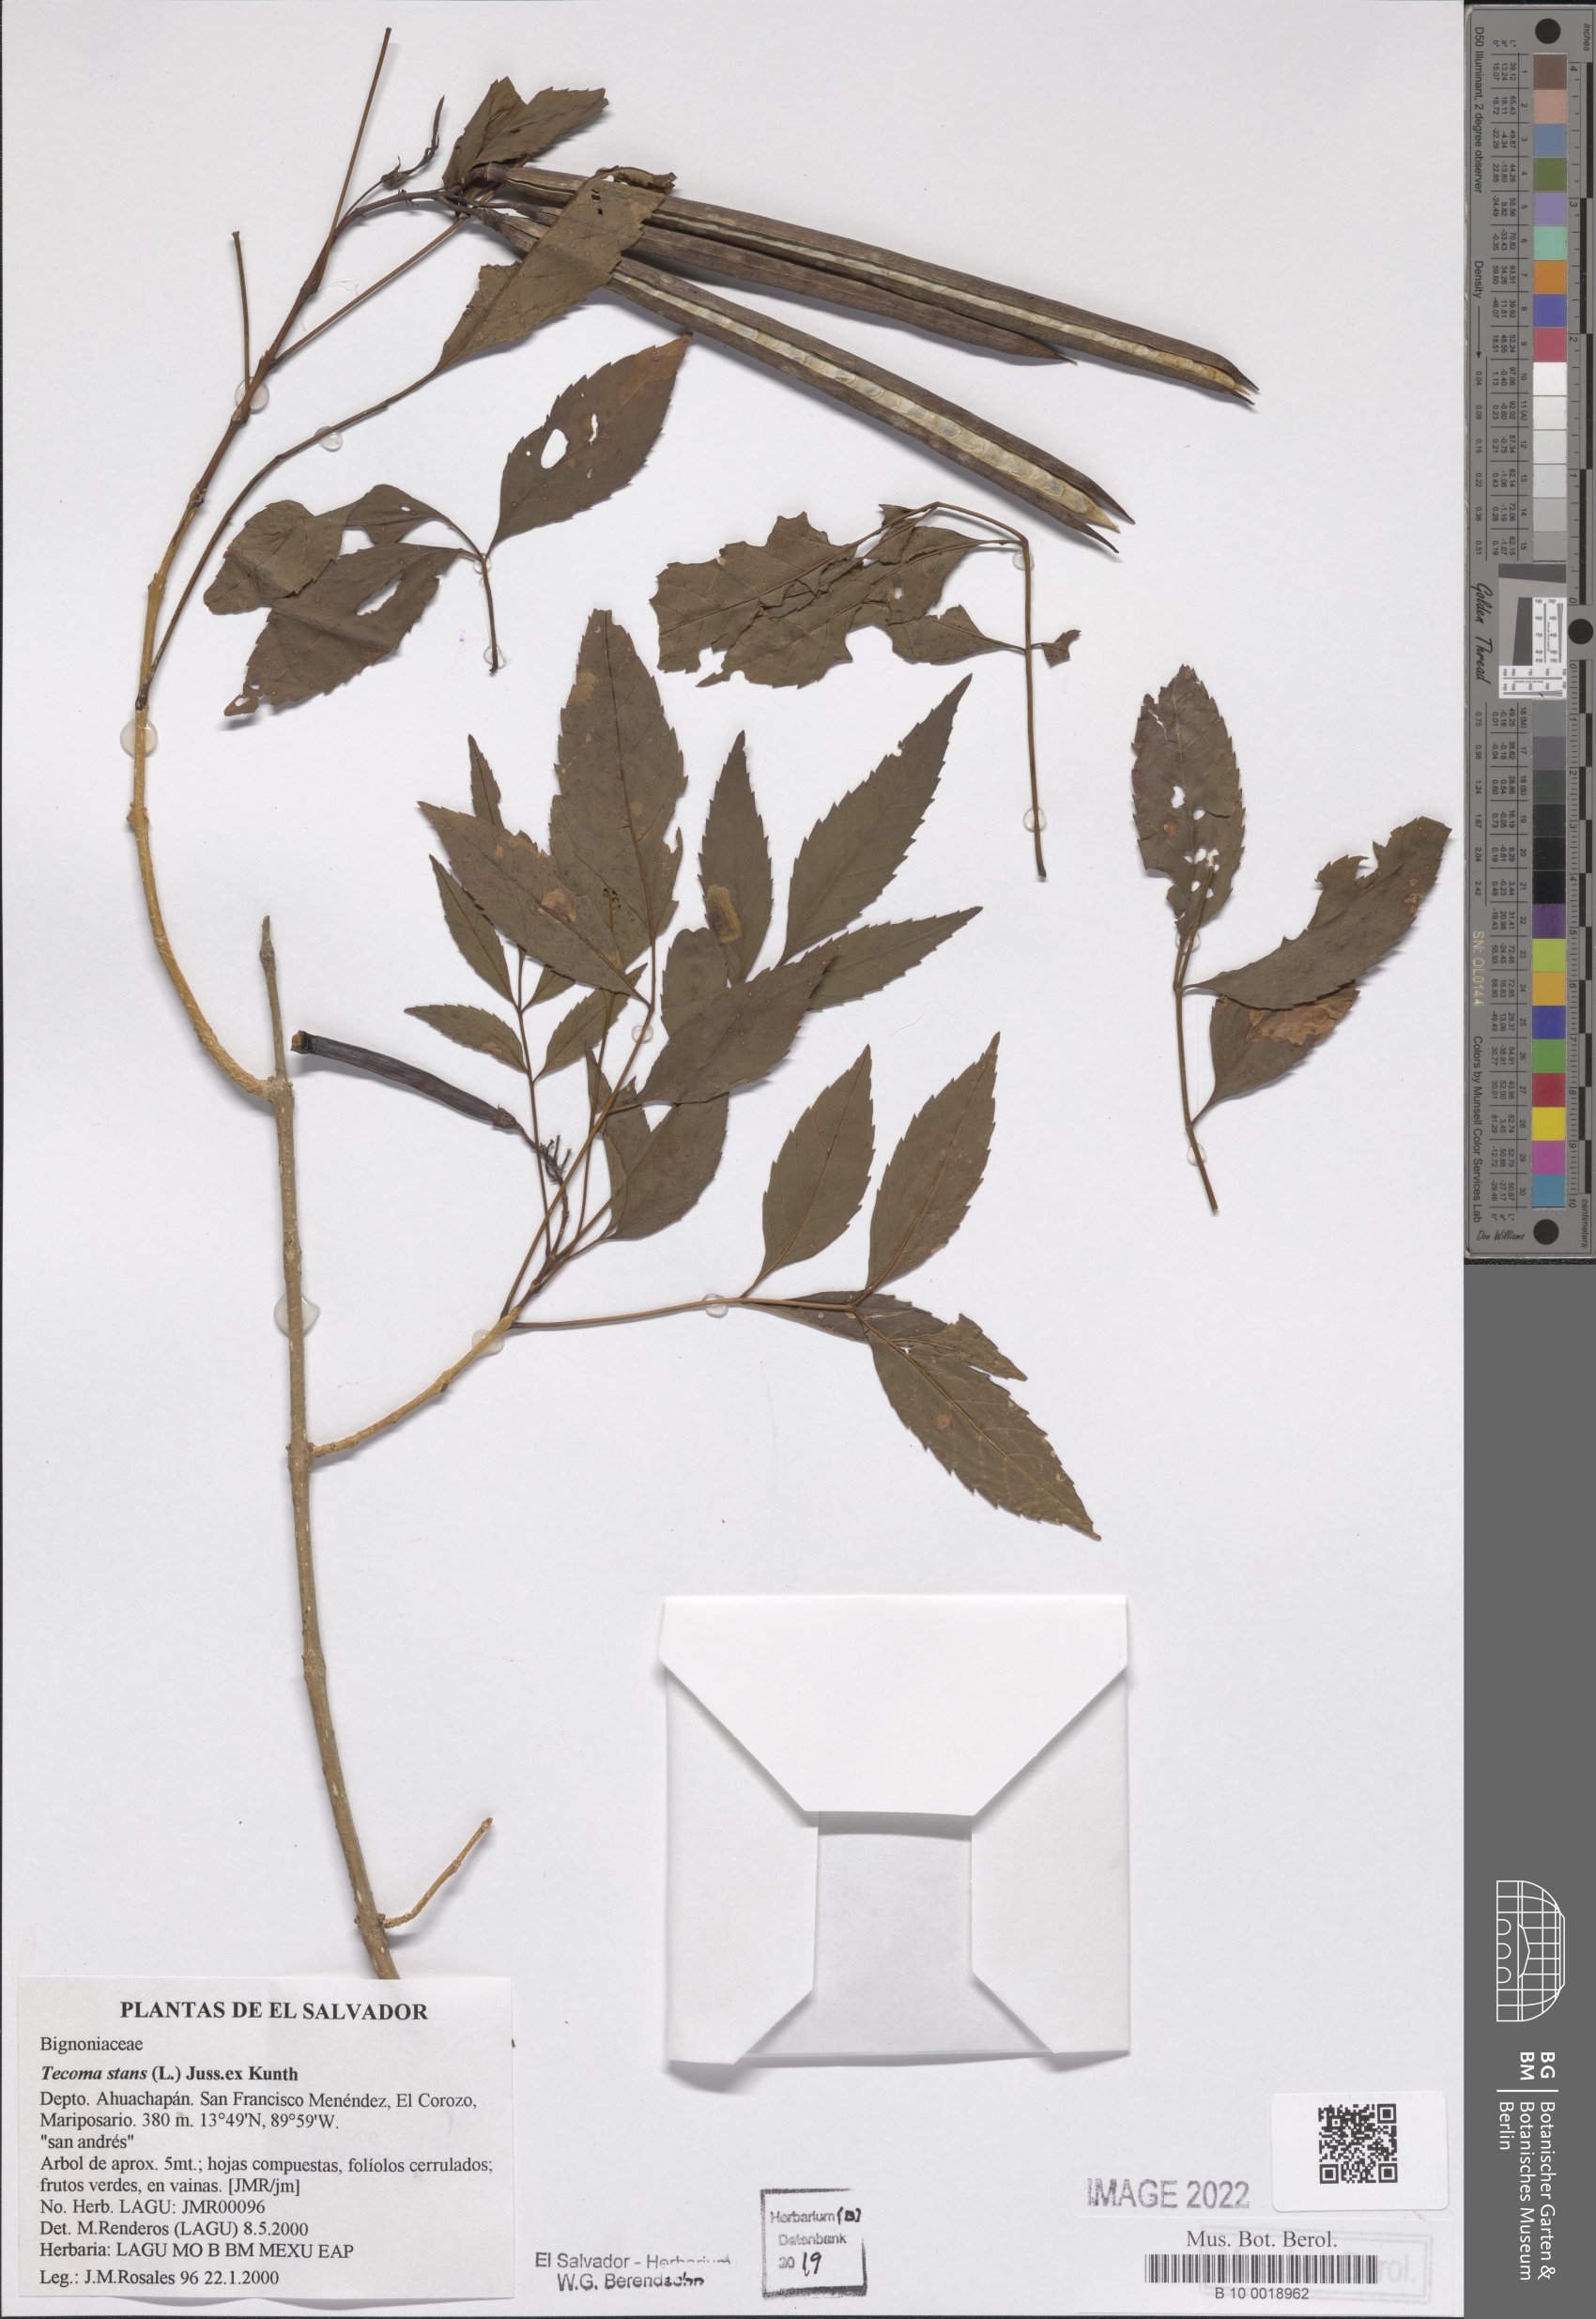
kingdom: Plantae
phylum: Tracheophyta
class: Magnoliopsida
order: Lamiales
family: Bignoniaceae
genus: Tecoma
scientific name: Tecoma stans
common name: Yellow trumpetbush
